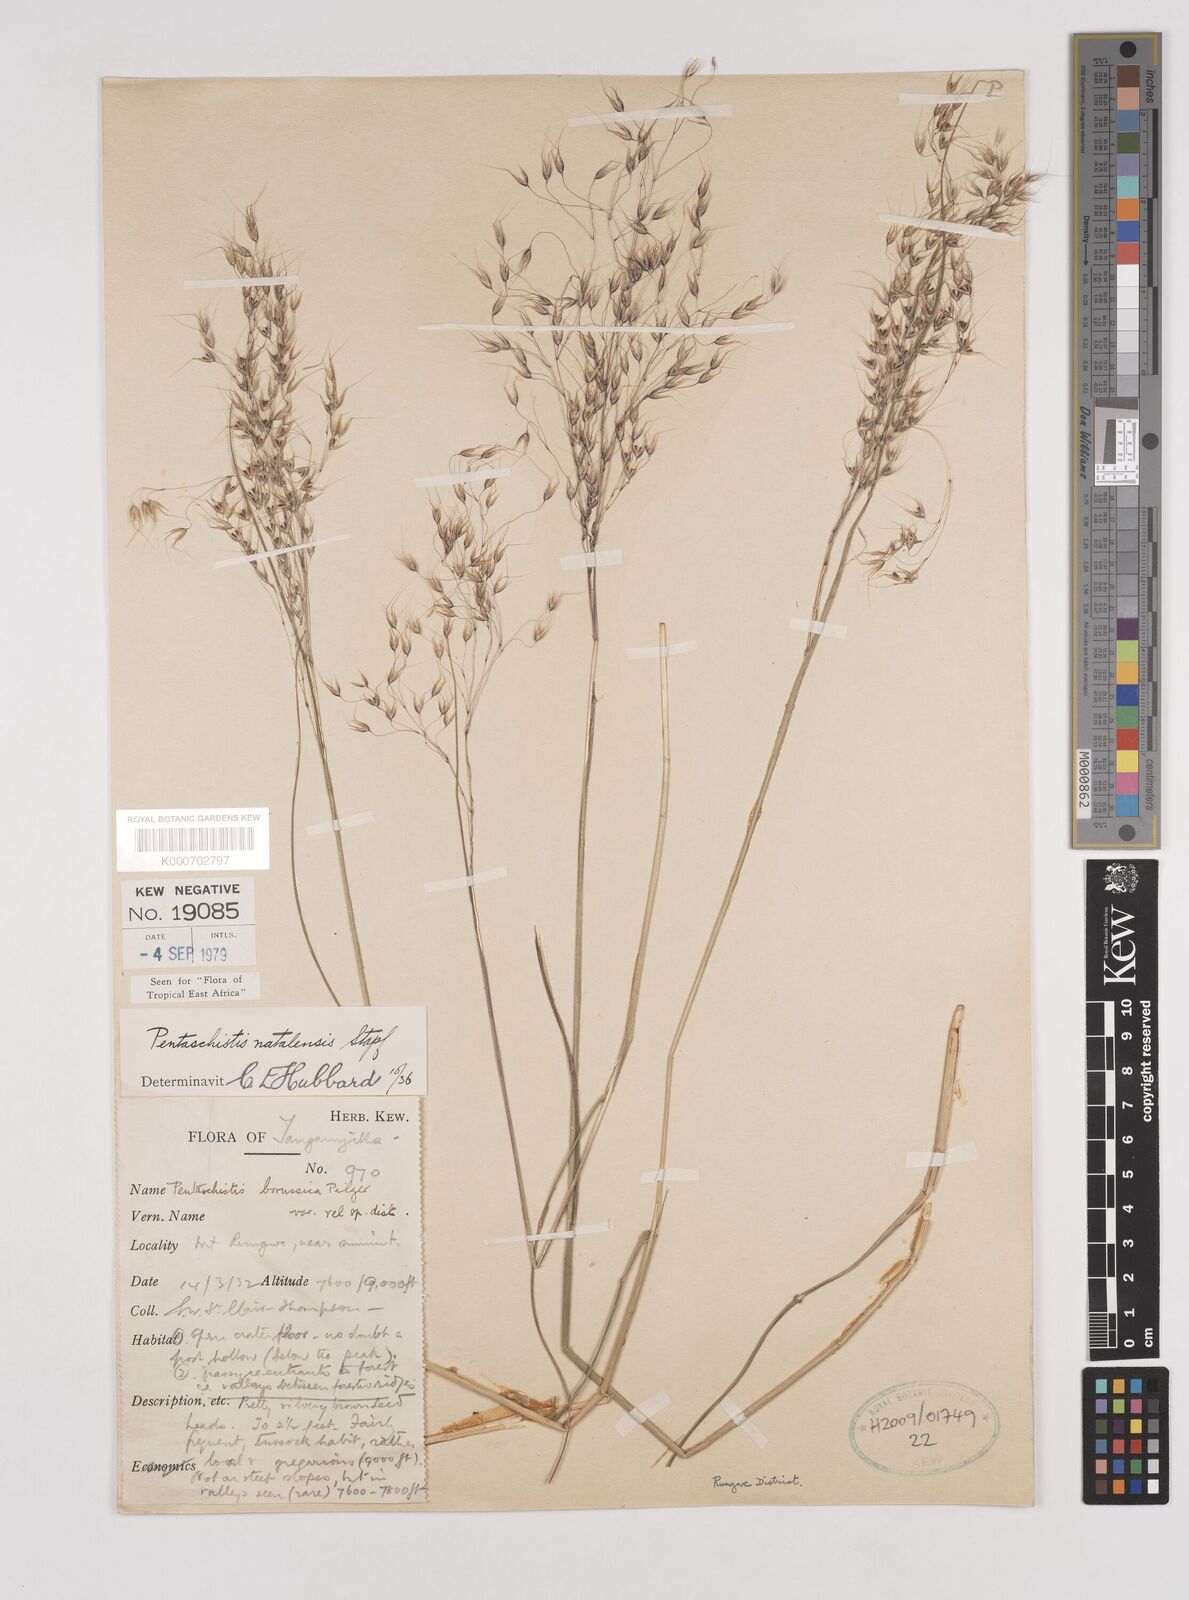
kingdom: Plantae
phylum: Tracheophyta
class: Liliopsida
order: Poales
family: Poaceae
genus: Pentameris
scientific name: Pentameris natalensis
